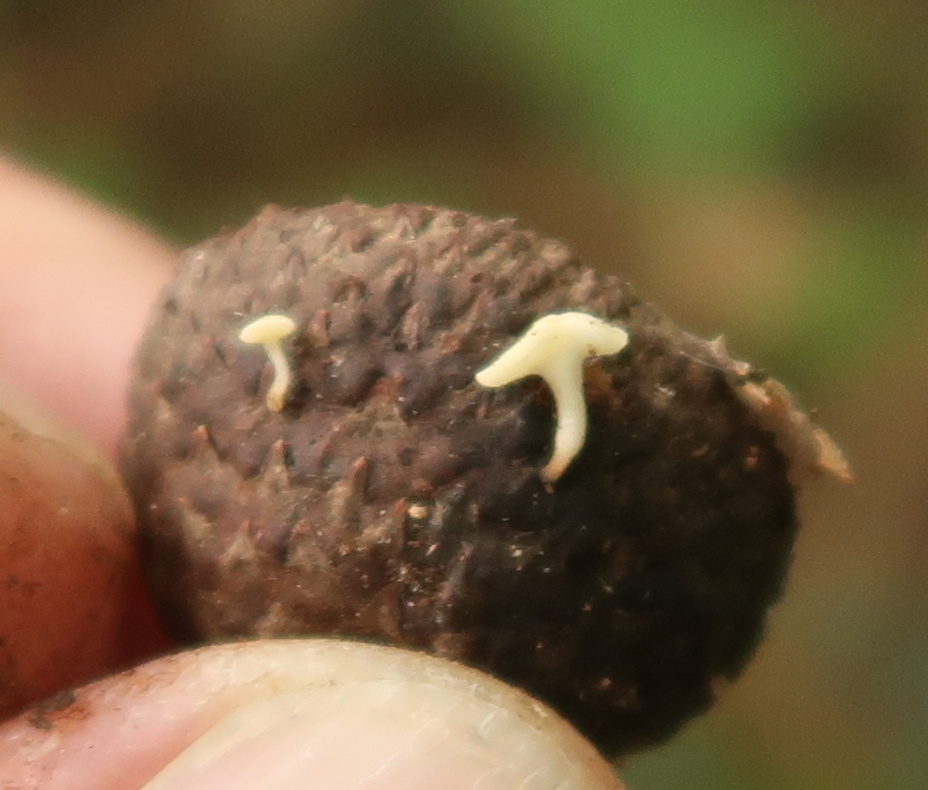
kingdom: Fungi
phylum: Ascomycota
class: Leotiomycetes
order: Helotiales
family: Helotiaceae
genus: Hymenoscyphus
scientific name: Hymenoscyphus fructigenus
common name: frugt-stilkskive
